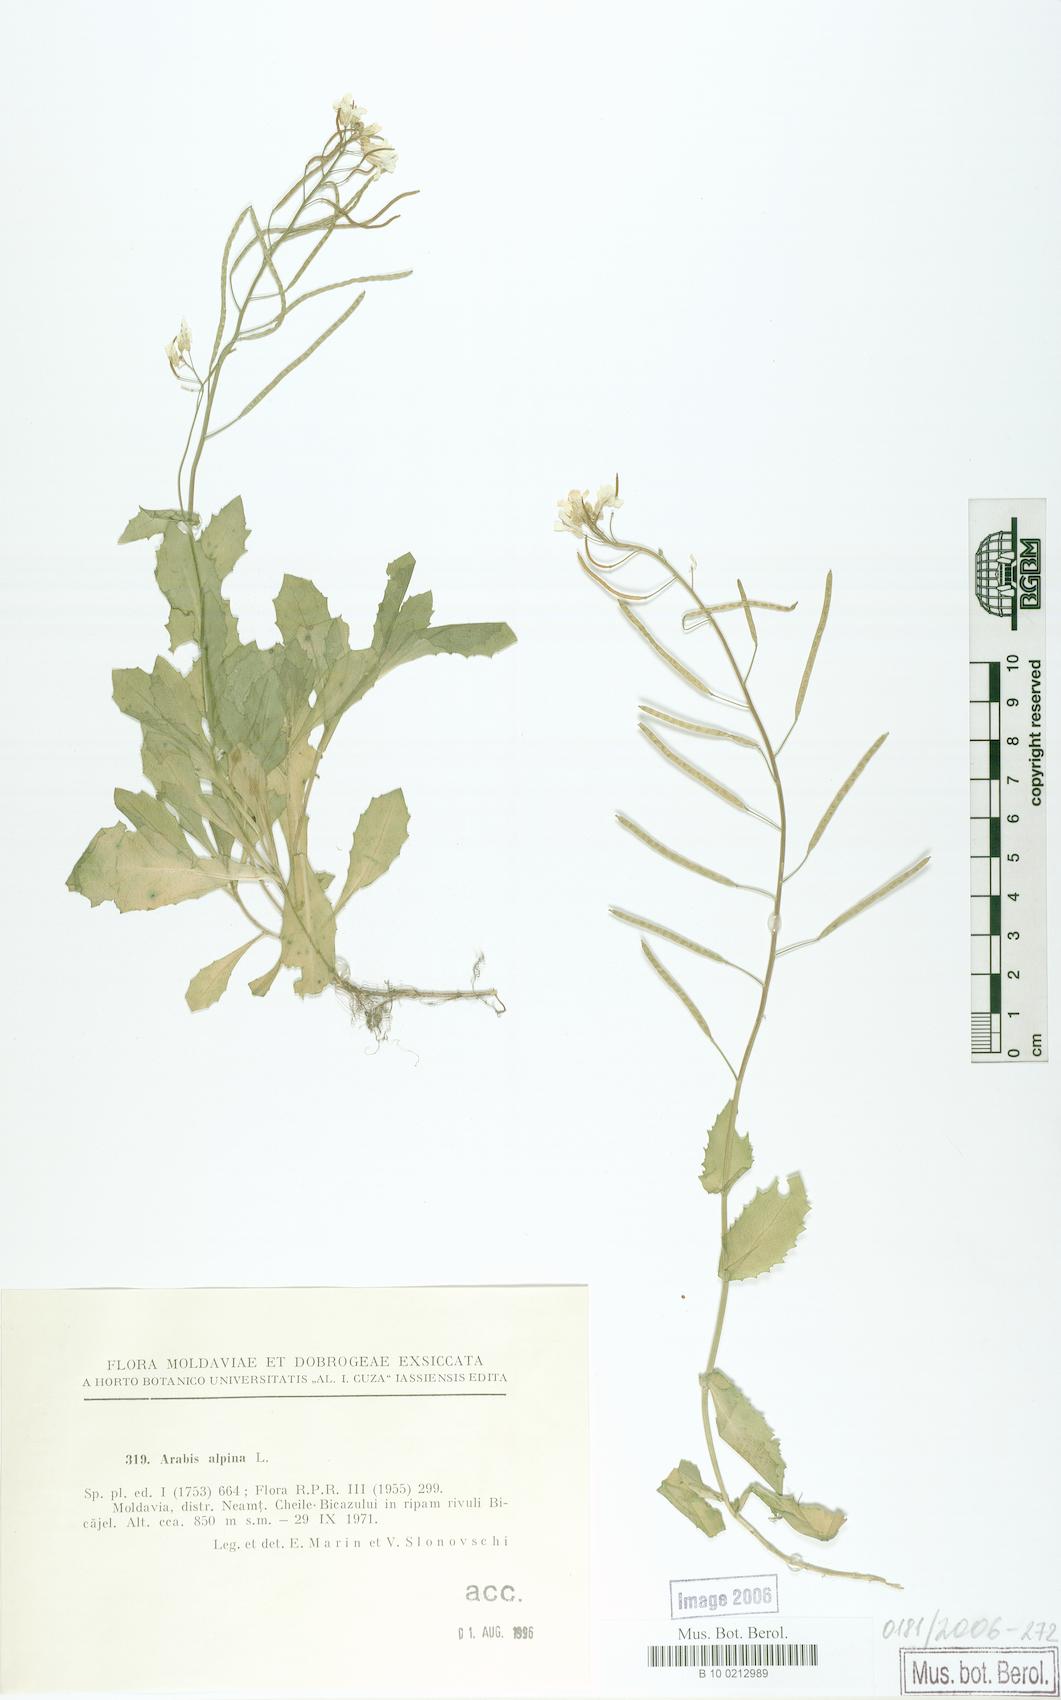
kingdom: Plantae
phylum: Tracheophyta
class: Magnoliopsida
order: Brassicales
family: Brassicaceae
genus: Arabis
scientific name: Arabis alpina
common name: Alpine rock-cress
